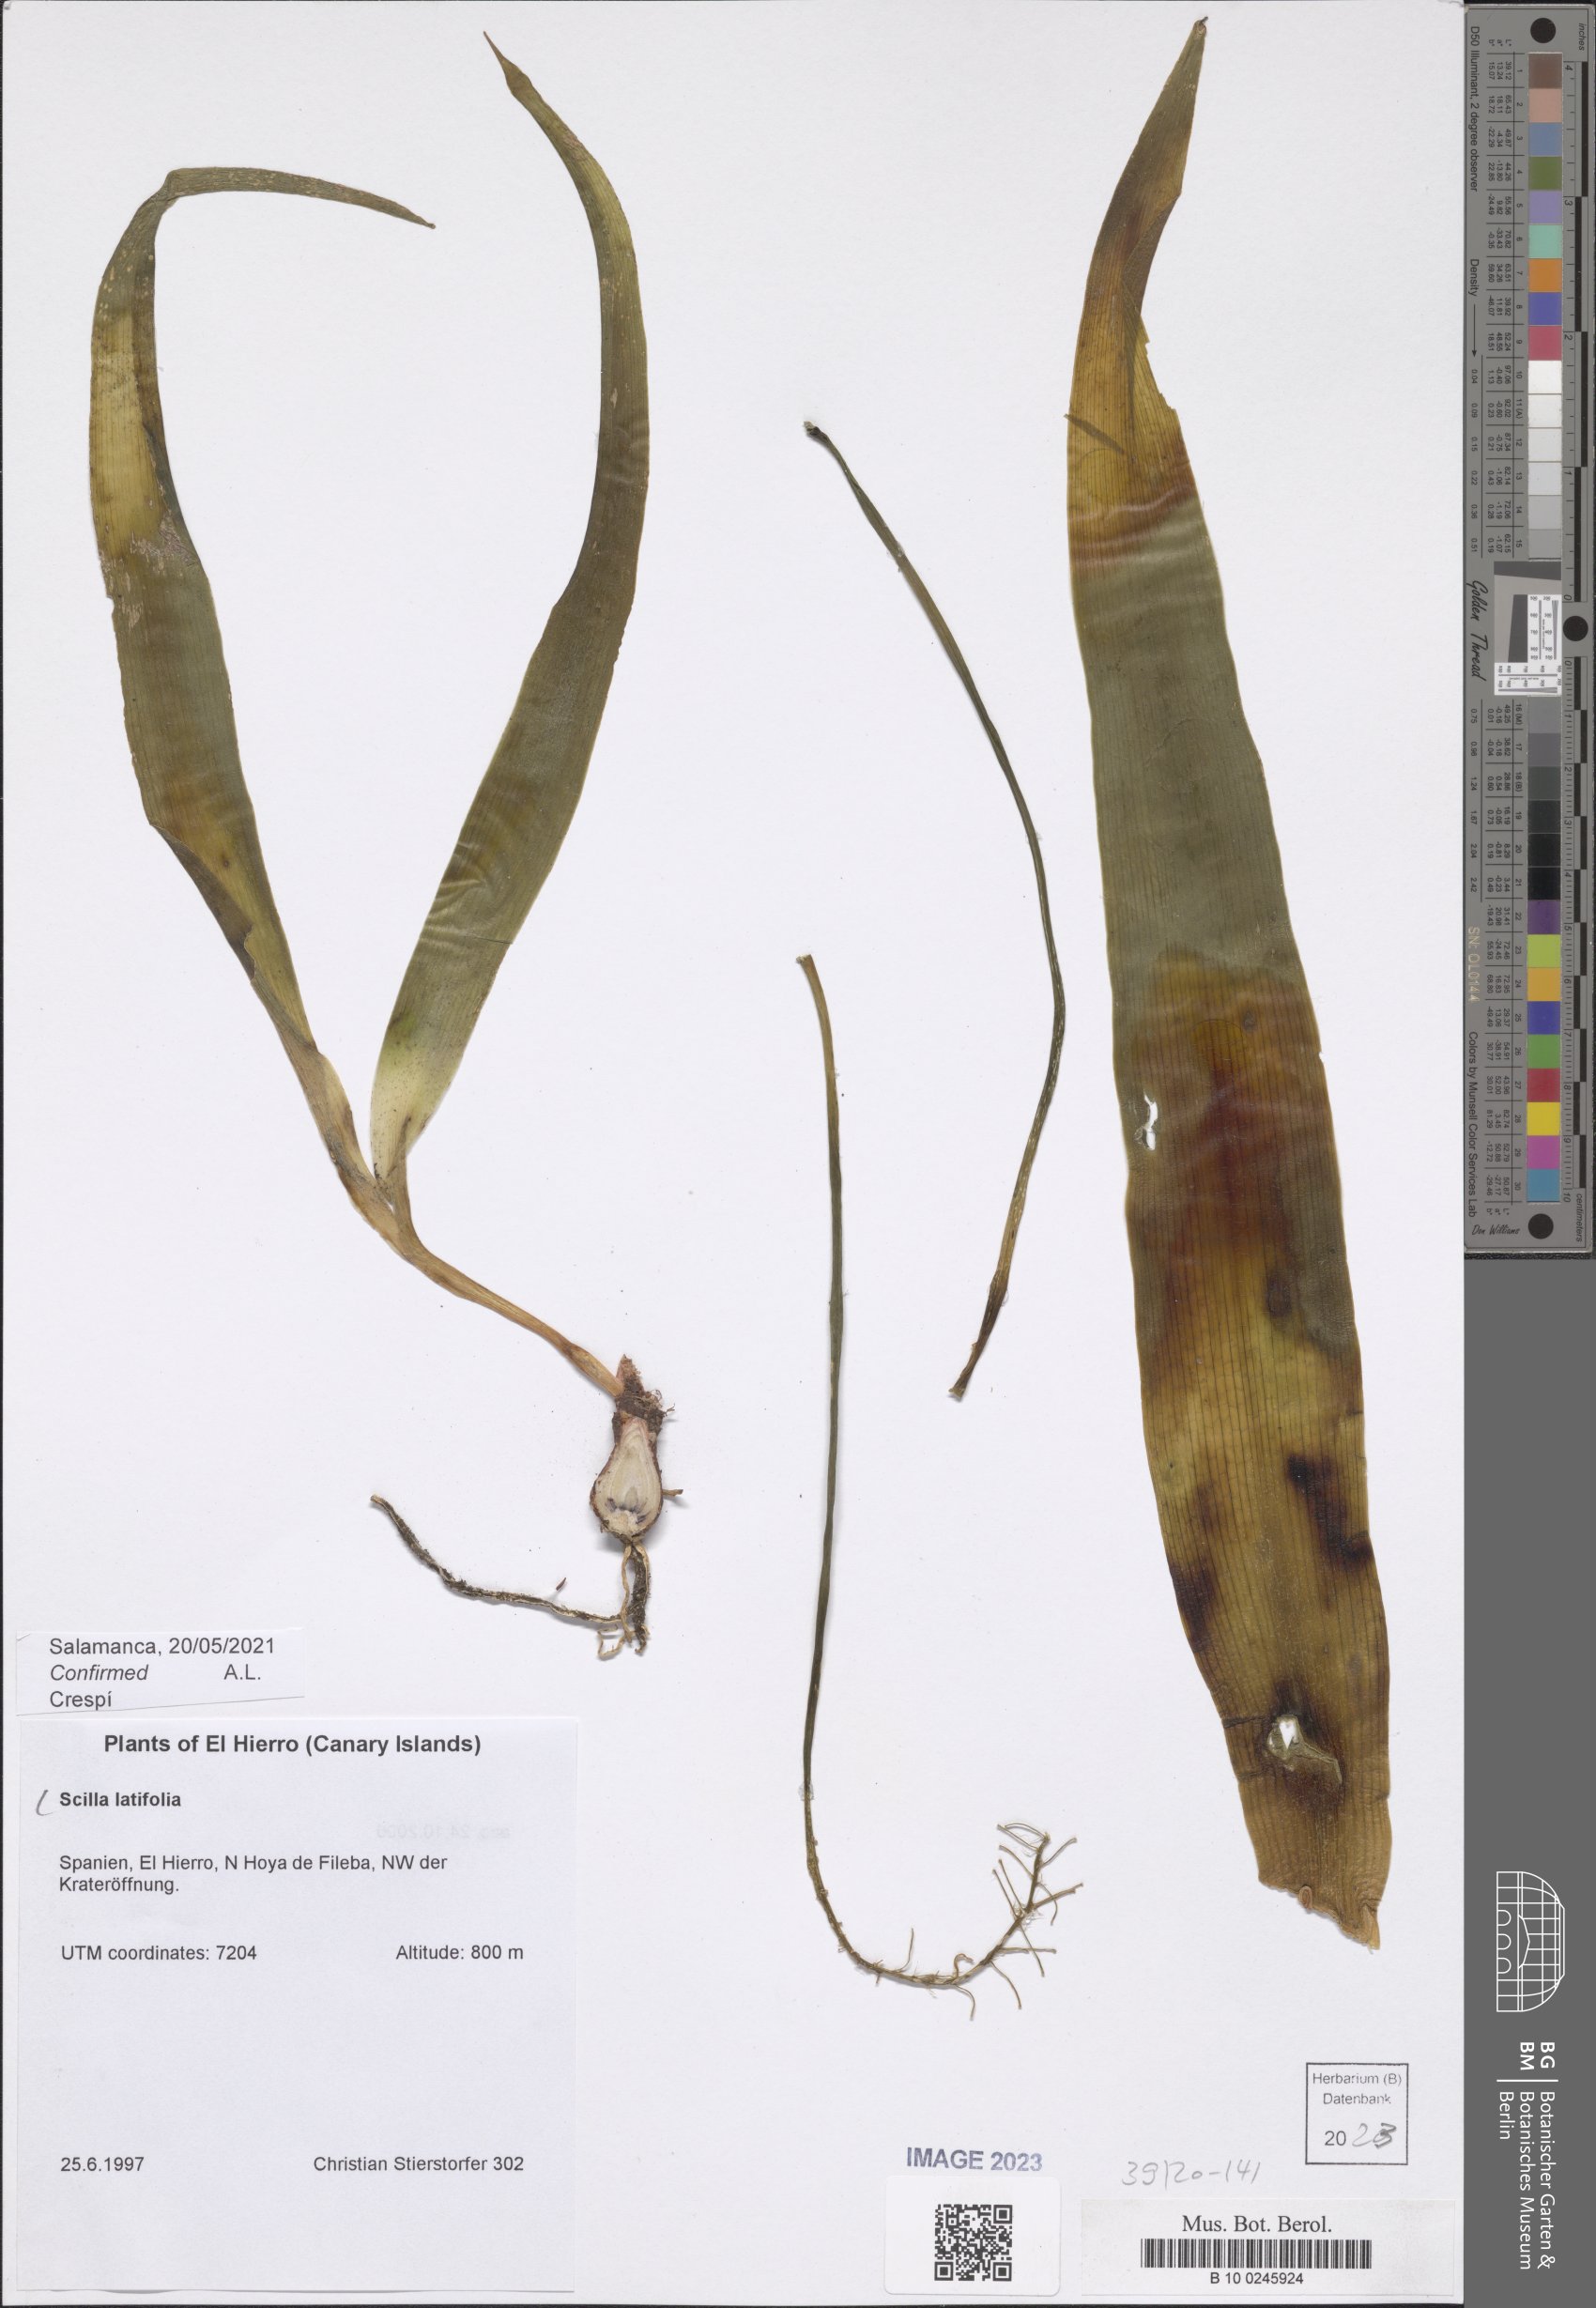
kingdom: Plantae
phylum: Tracheophyta
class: Liliopsida
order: Asparagales
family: Asparagaceae
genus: Scilla
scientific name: Scilla latifolia
